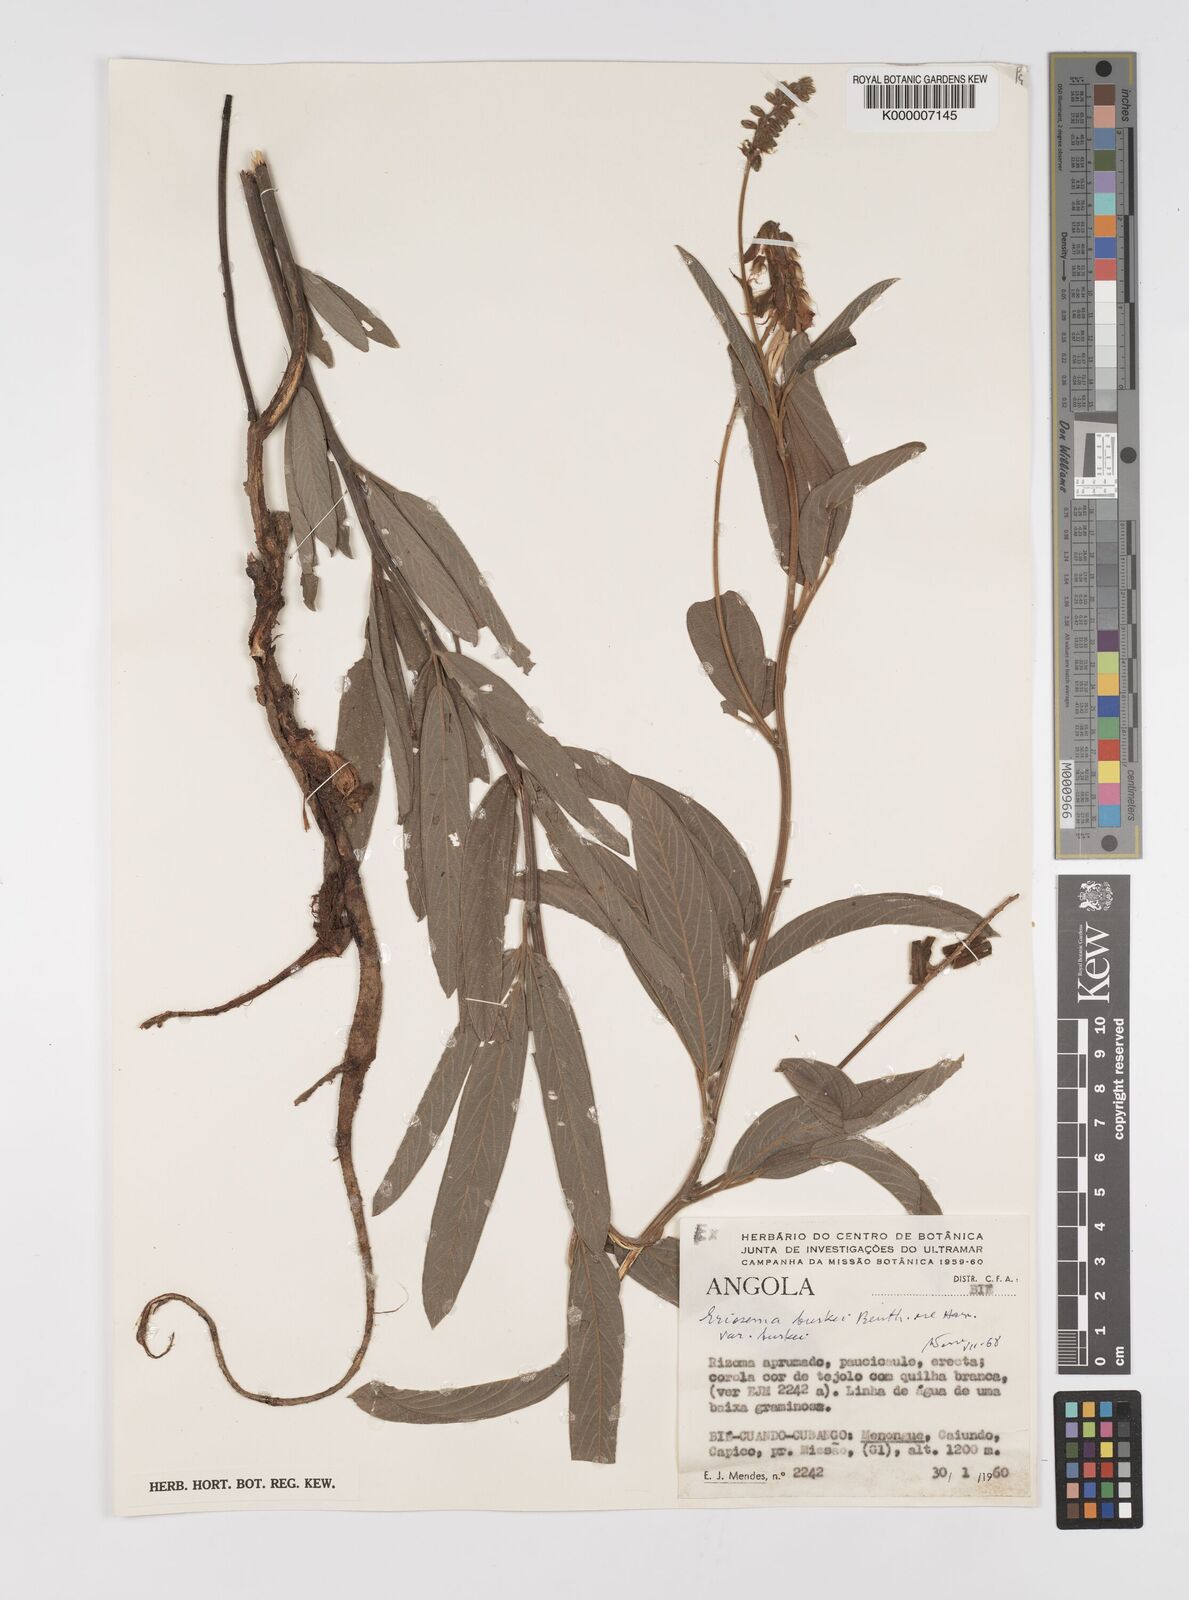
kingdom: Plantae
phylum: Tracheophyta
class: Magnoliopsida
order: Fabales
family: Fabaceae
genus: Eriosema
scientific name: Eriosema burkei
